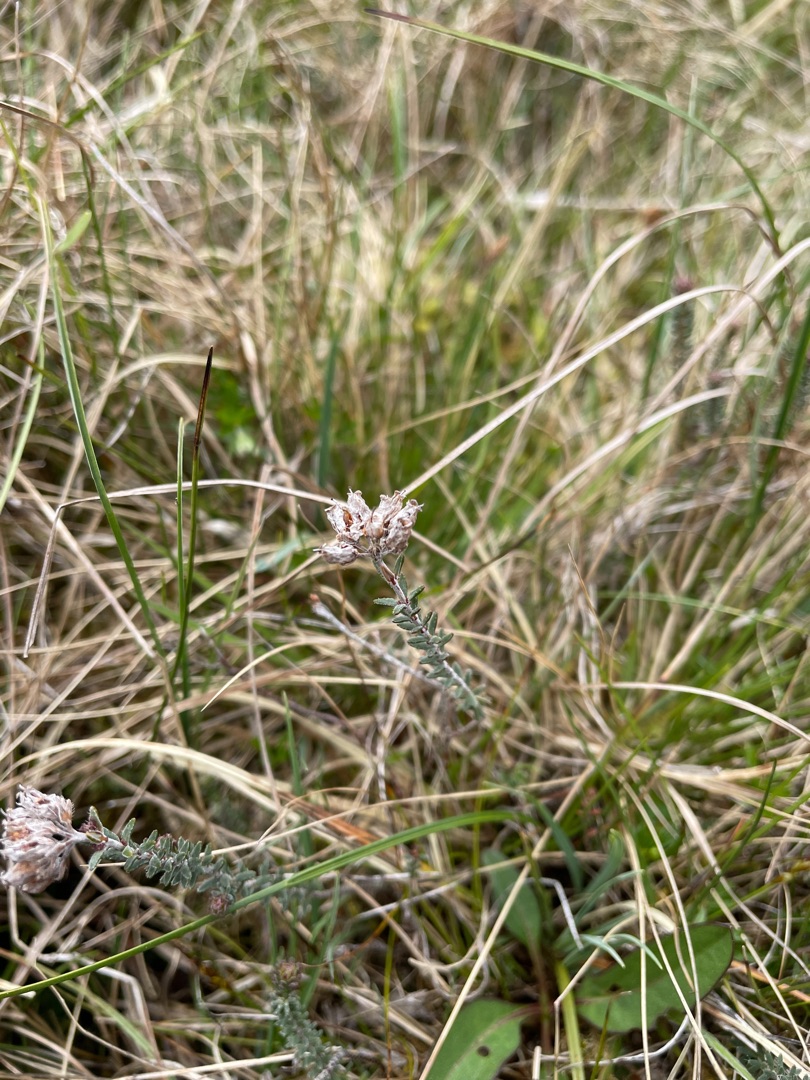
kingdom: Plantae
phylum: Tracheophyta
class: Magnoliopsida
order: Ericales
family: Ericaceae
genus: Erica
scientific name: Erica tetralix
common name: Klokkelyng
